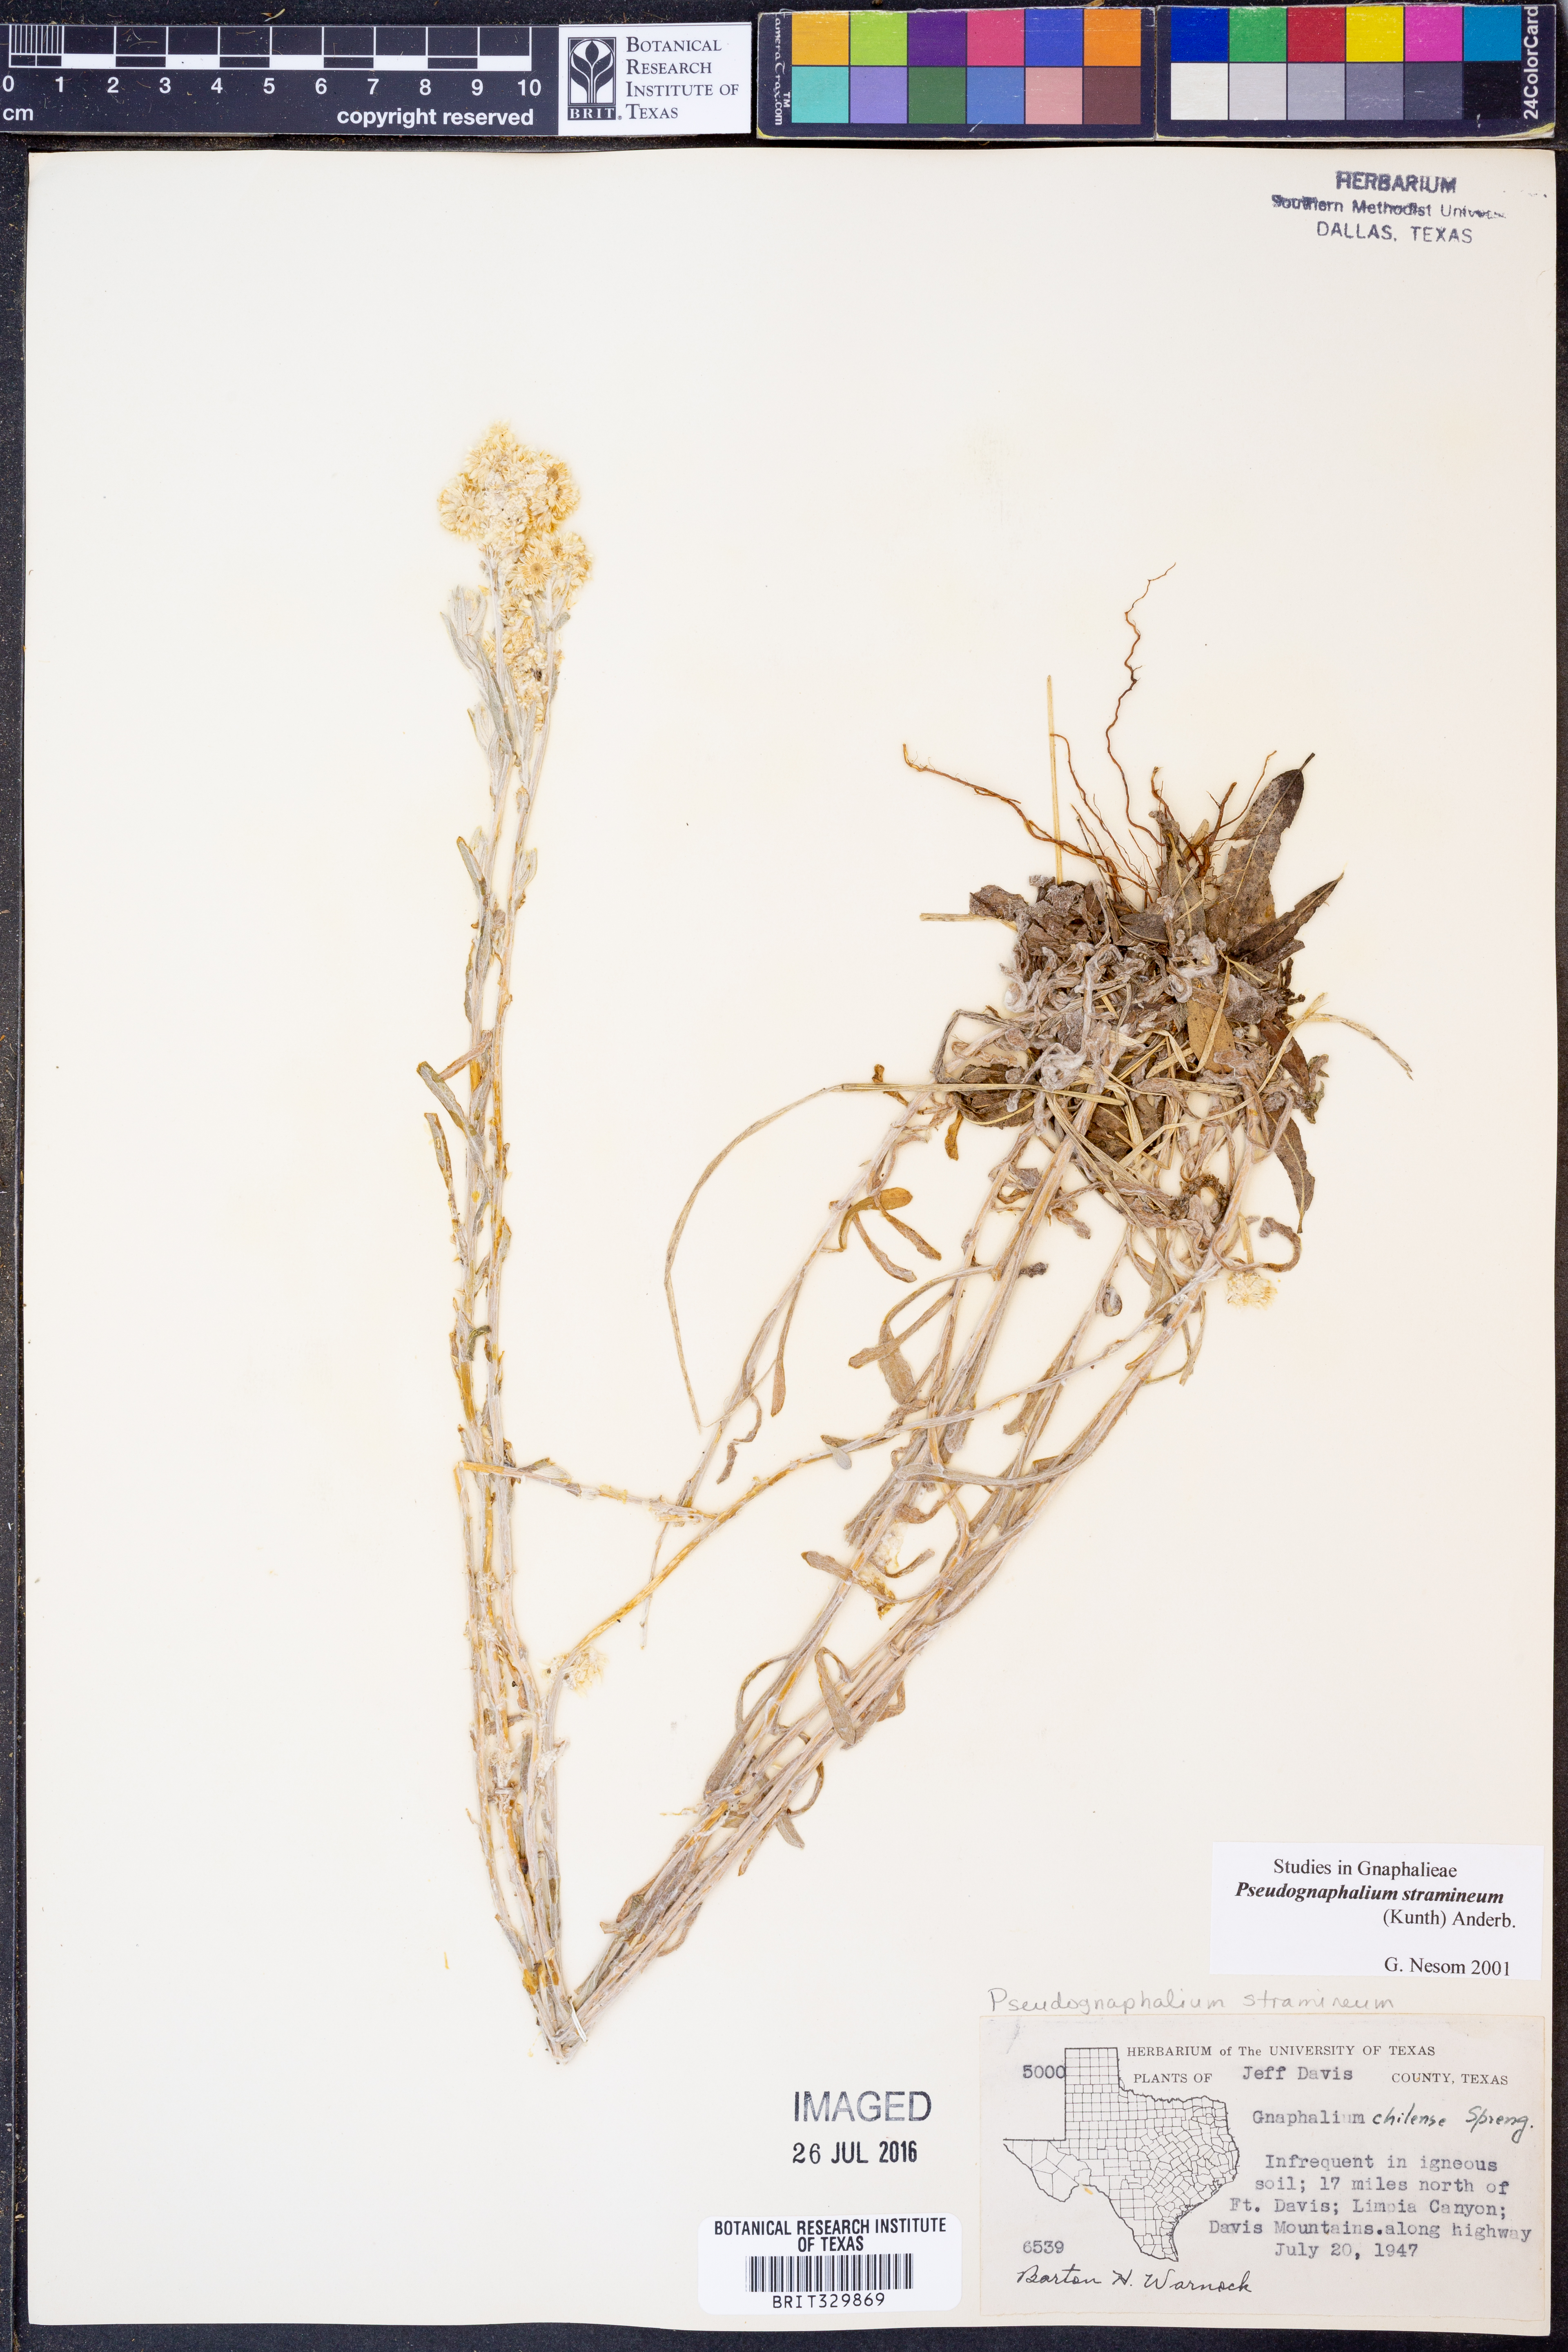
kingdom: Plantae
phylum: Tracheophyta
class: Magnoliopsida
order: Asterales
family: Asteraceae
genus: Pseudognaphalium
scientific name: Pseudognaphalium stramineum
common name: Cotton-batting-plant
